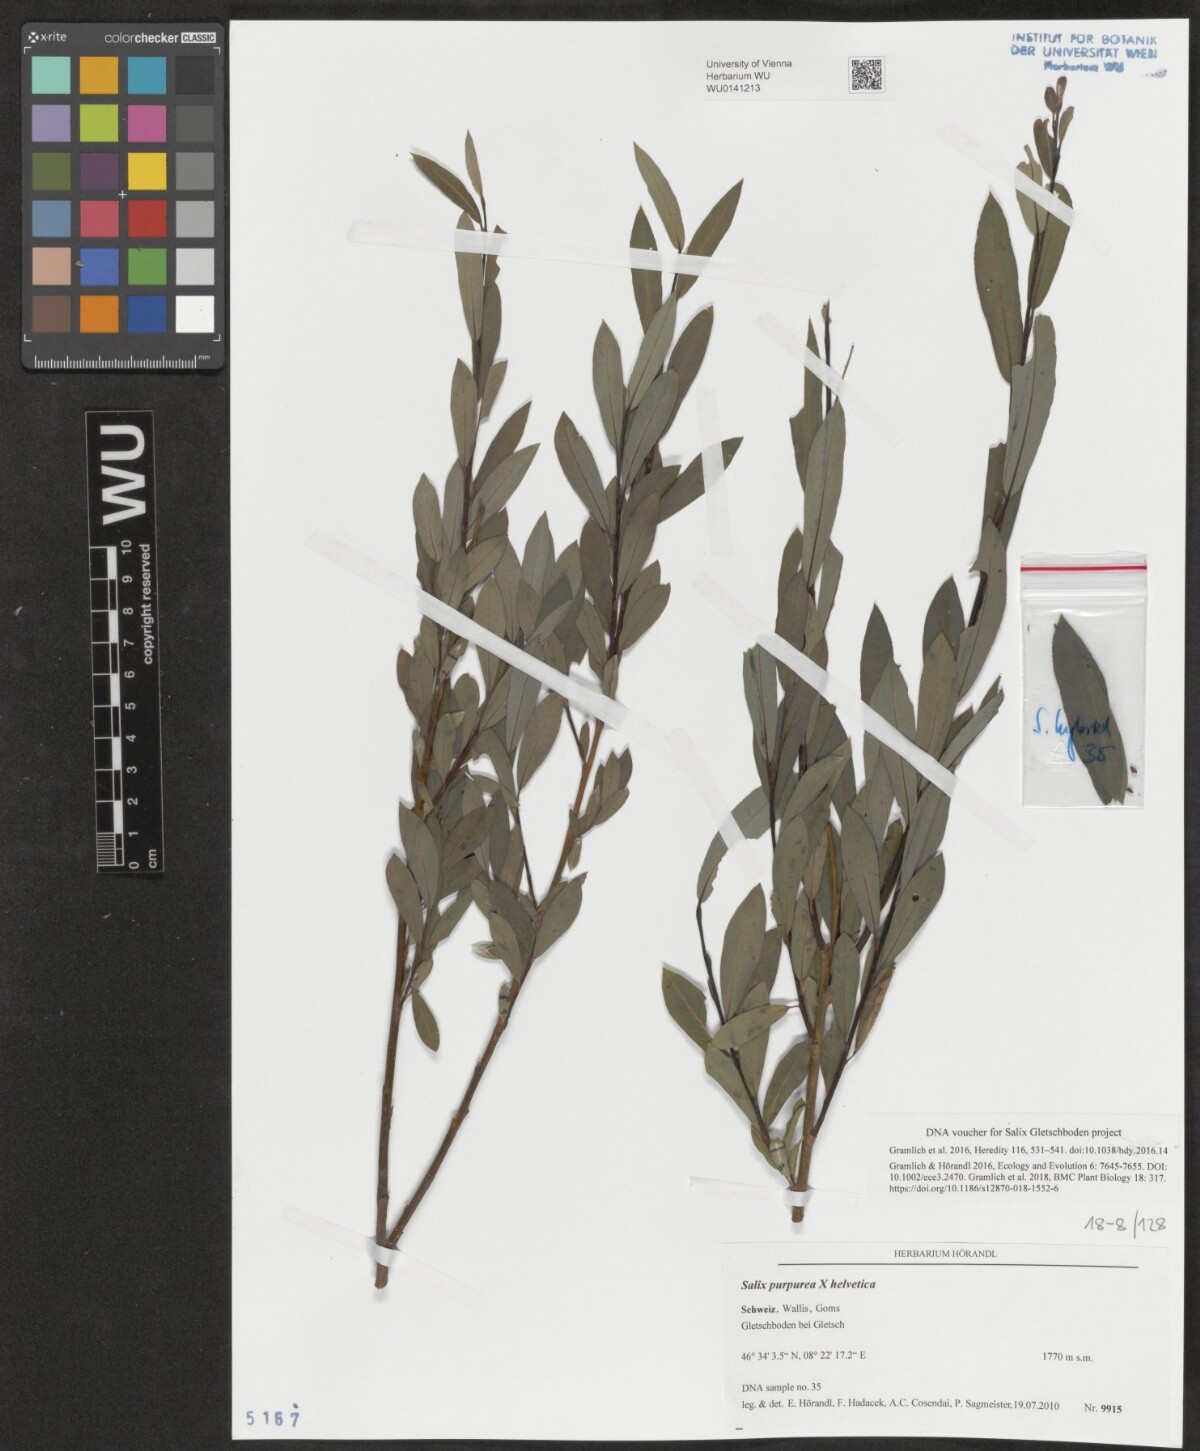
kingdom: Plantae
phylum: Tracheophyta
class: Magnoliopsida
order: Malpighiales
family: Salicaceae
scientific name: Salicaceae
